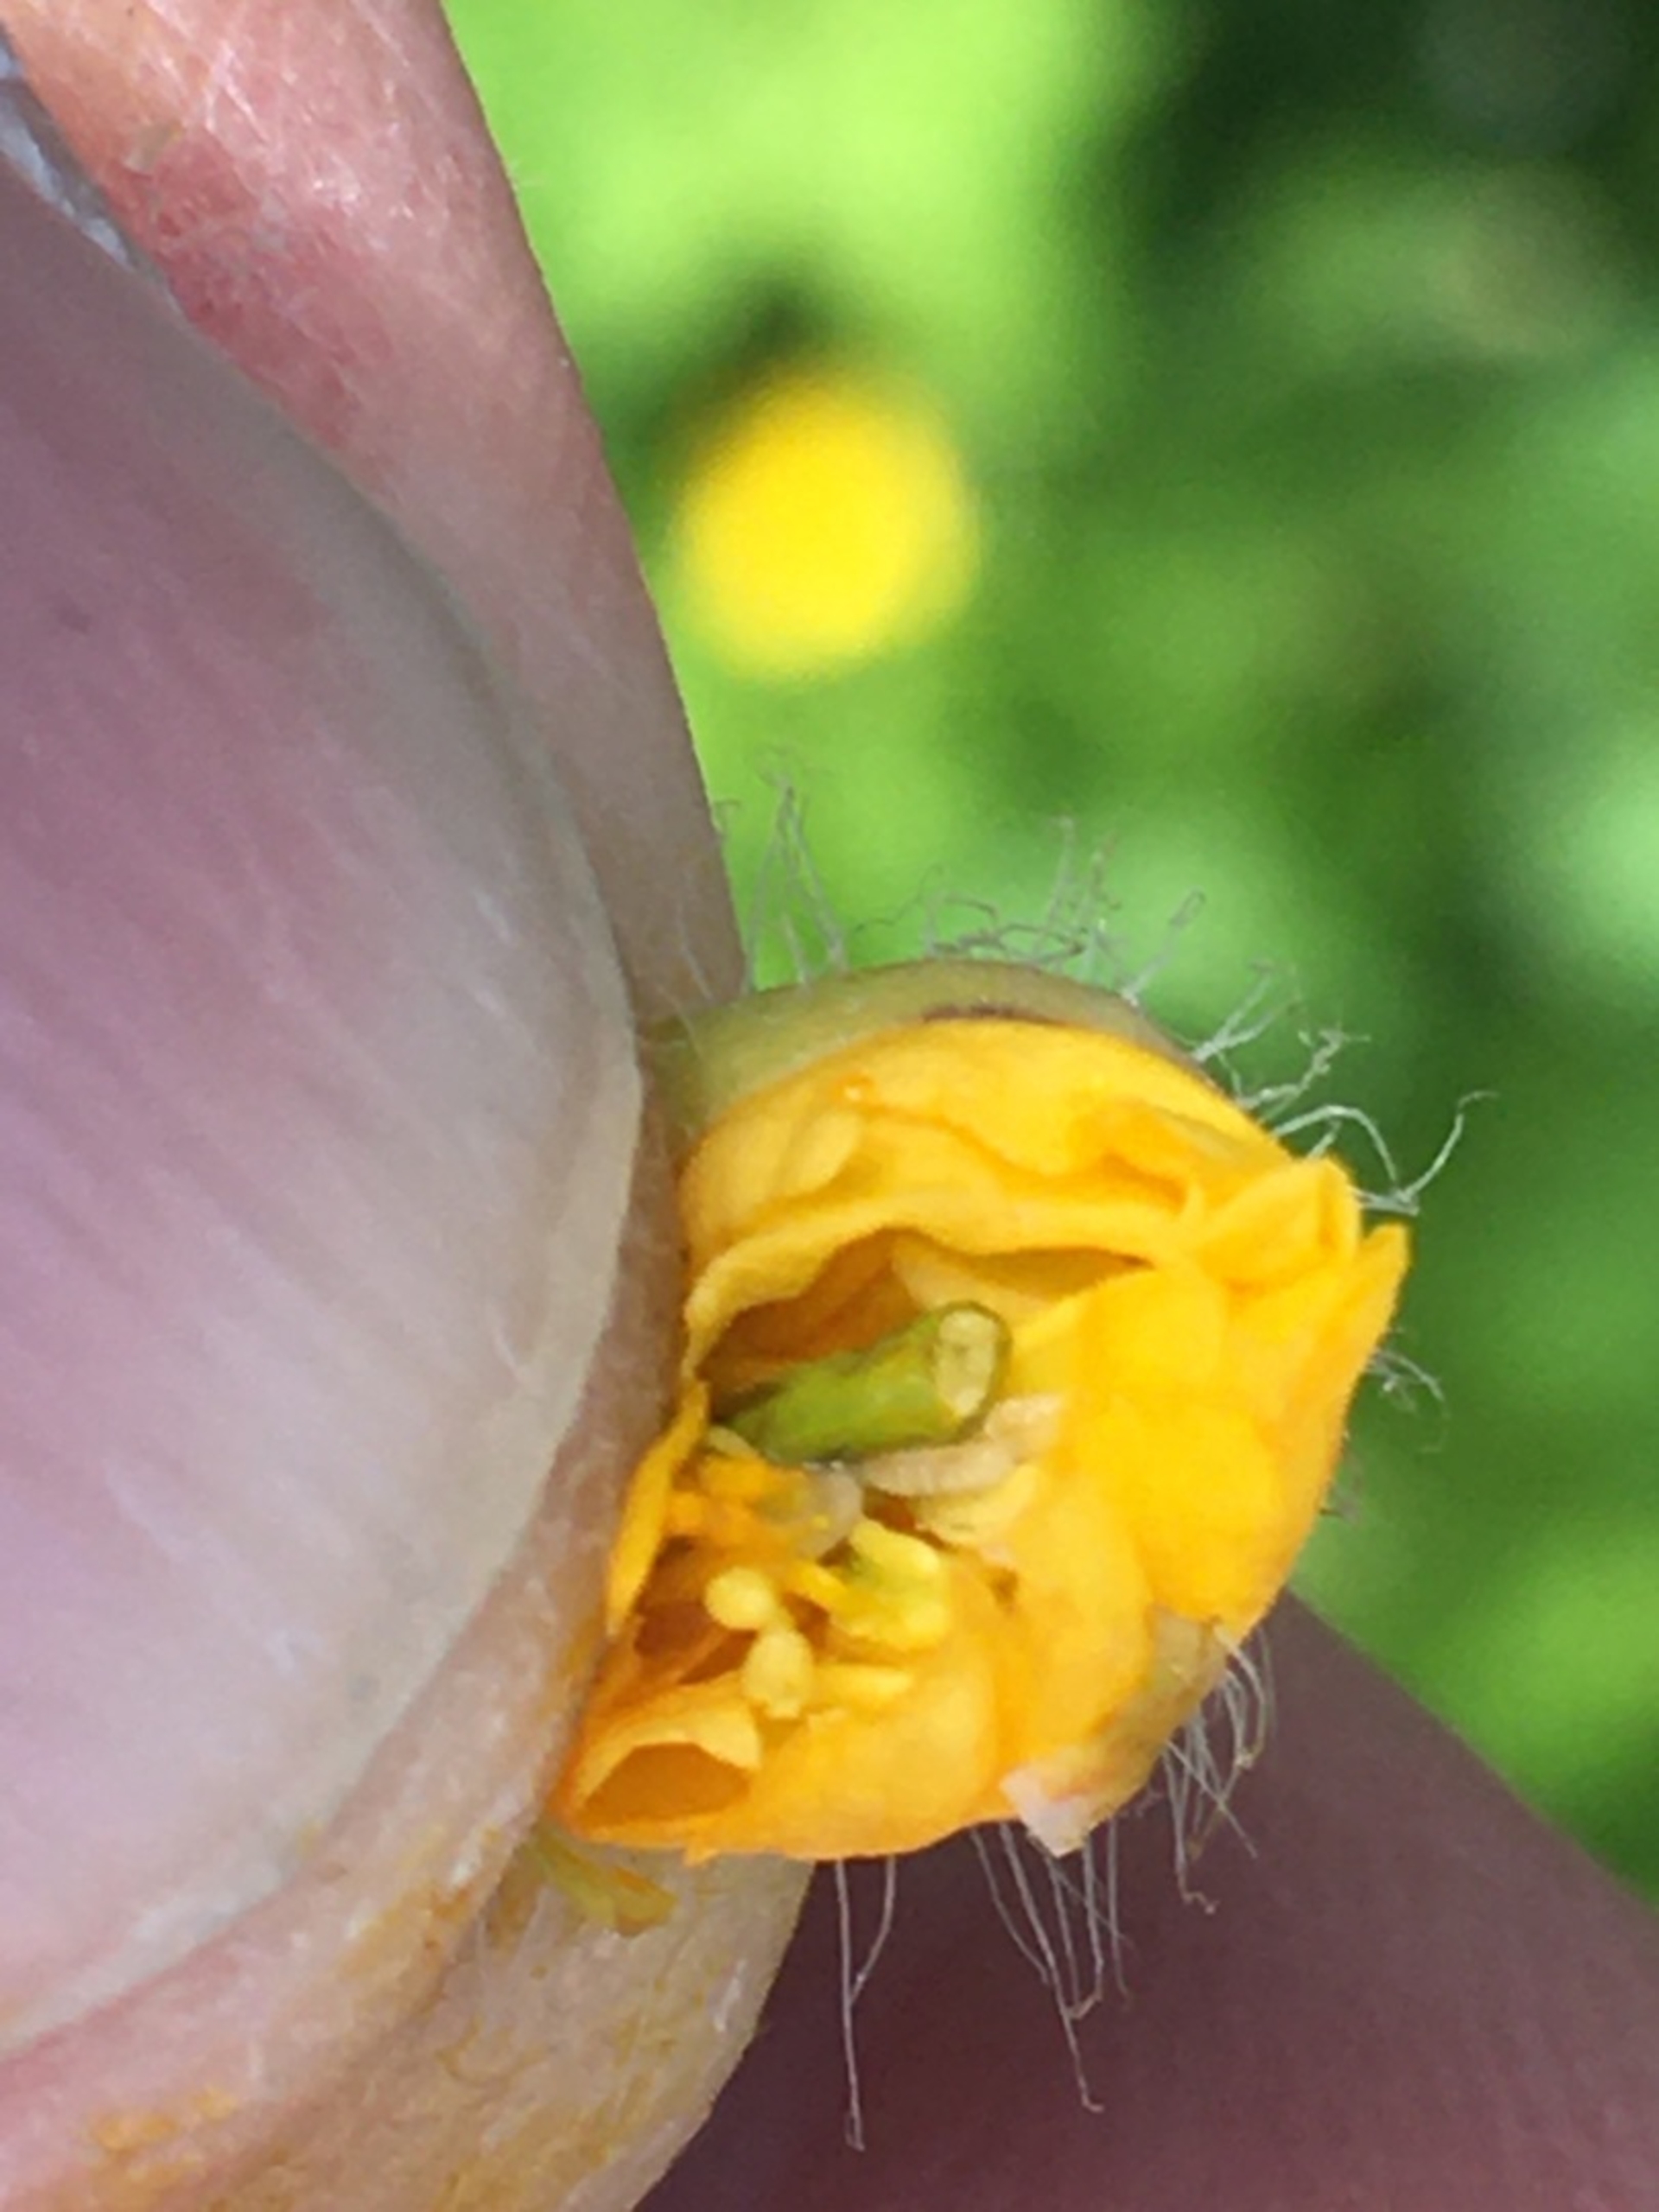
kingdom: Animalia
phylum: Arthropoda
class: Insecta
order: Diptera
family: Cecidomyiidae
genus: Jaapiella
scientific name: Jaapiella chelidonii
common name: Svaleurtgalmyg
